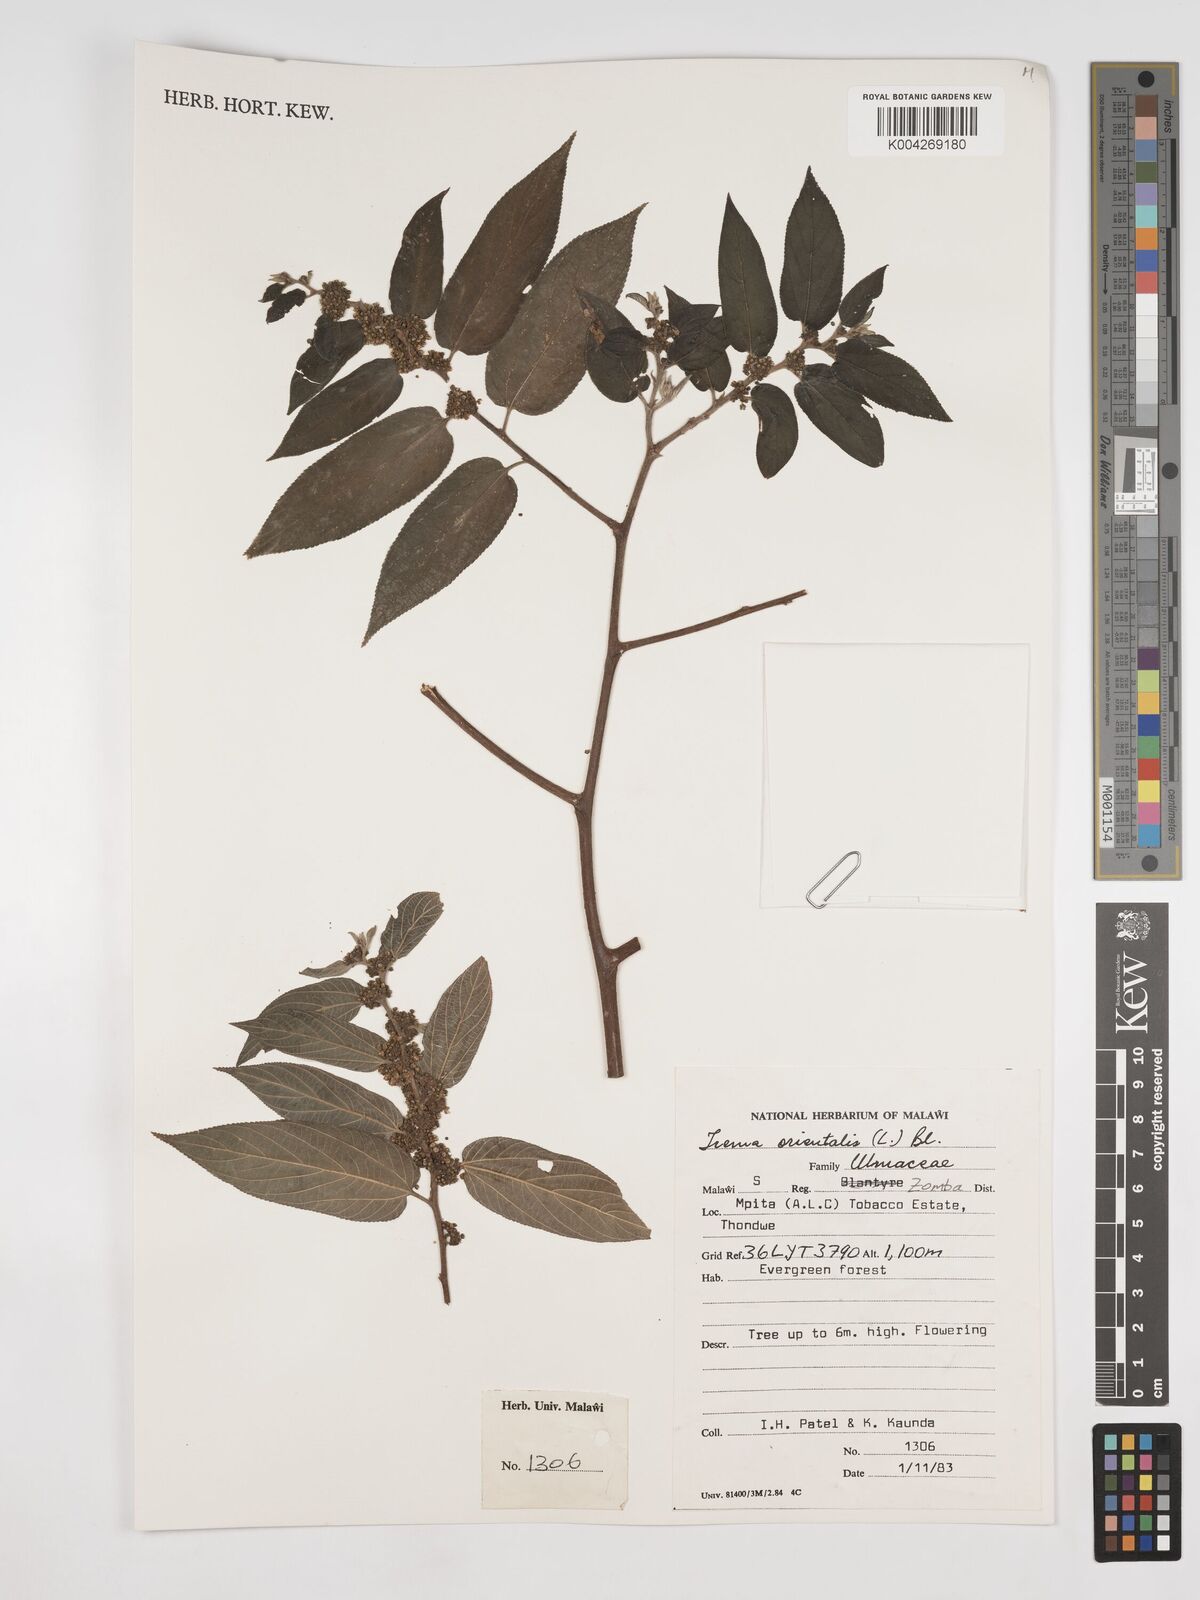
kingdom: Plantae
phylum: Tracheophyta
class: Magnoliopsida
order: Rosales
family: Cannabaceae
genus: Trema
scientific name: Trema orientale
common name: Indian charcoal tree
